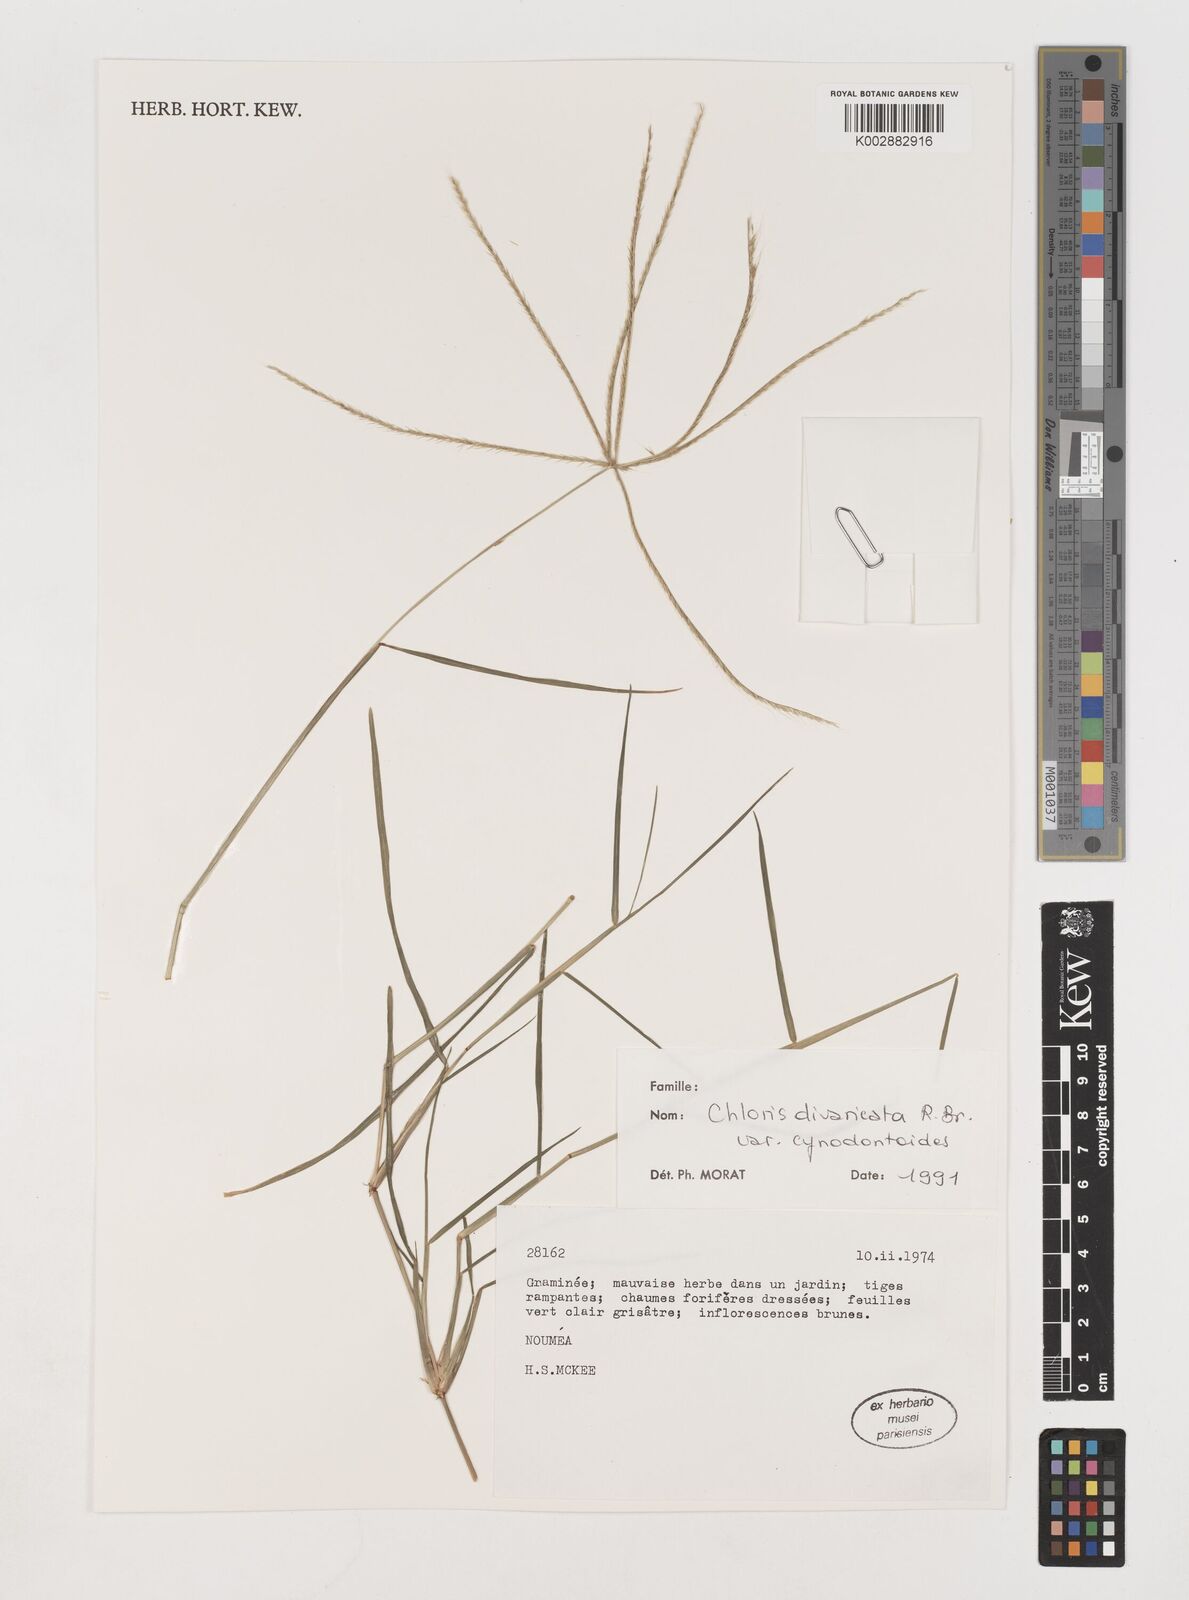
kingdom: Plantae
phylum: Tracheophyta
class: Liliopsida
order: Poales
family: Poaceae
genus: Chloris
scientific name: Chloris divaricata
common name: Spreading windmill grass
